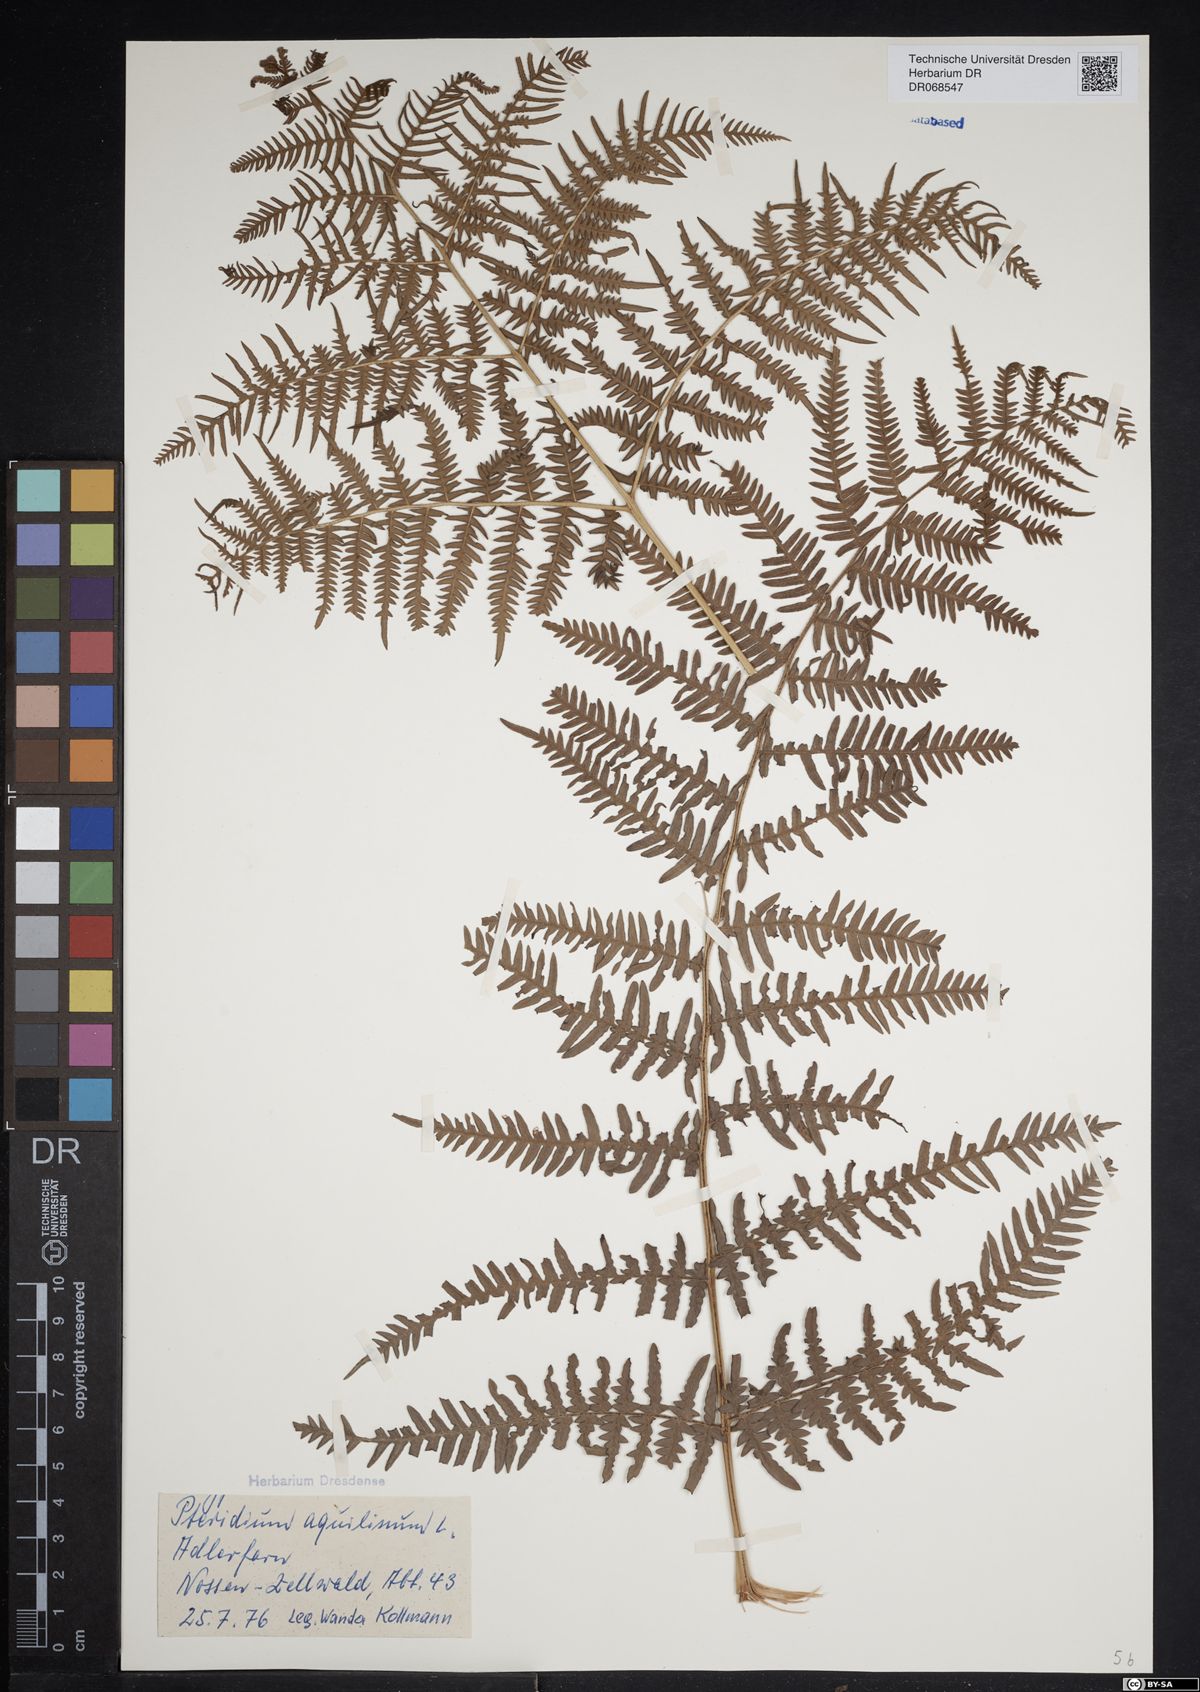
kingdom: Plantae
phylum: Tracheophyta
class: Polypodiopsida
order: Polypodiales
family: Dennstaedtiaceae
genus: Pteridium
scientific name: Pteridium aquilinum
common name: Bracken
